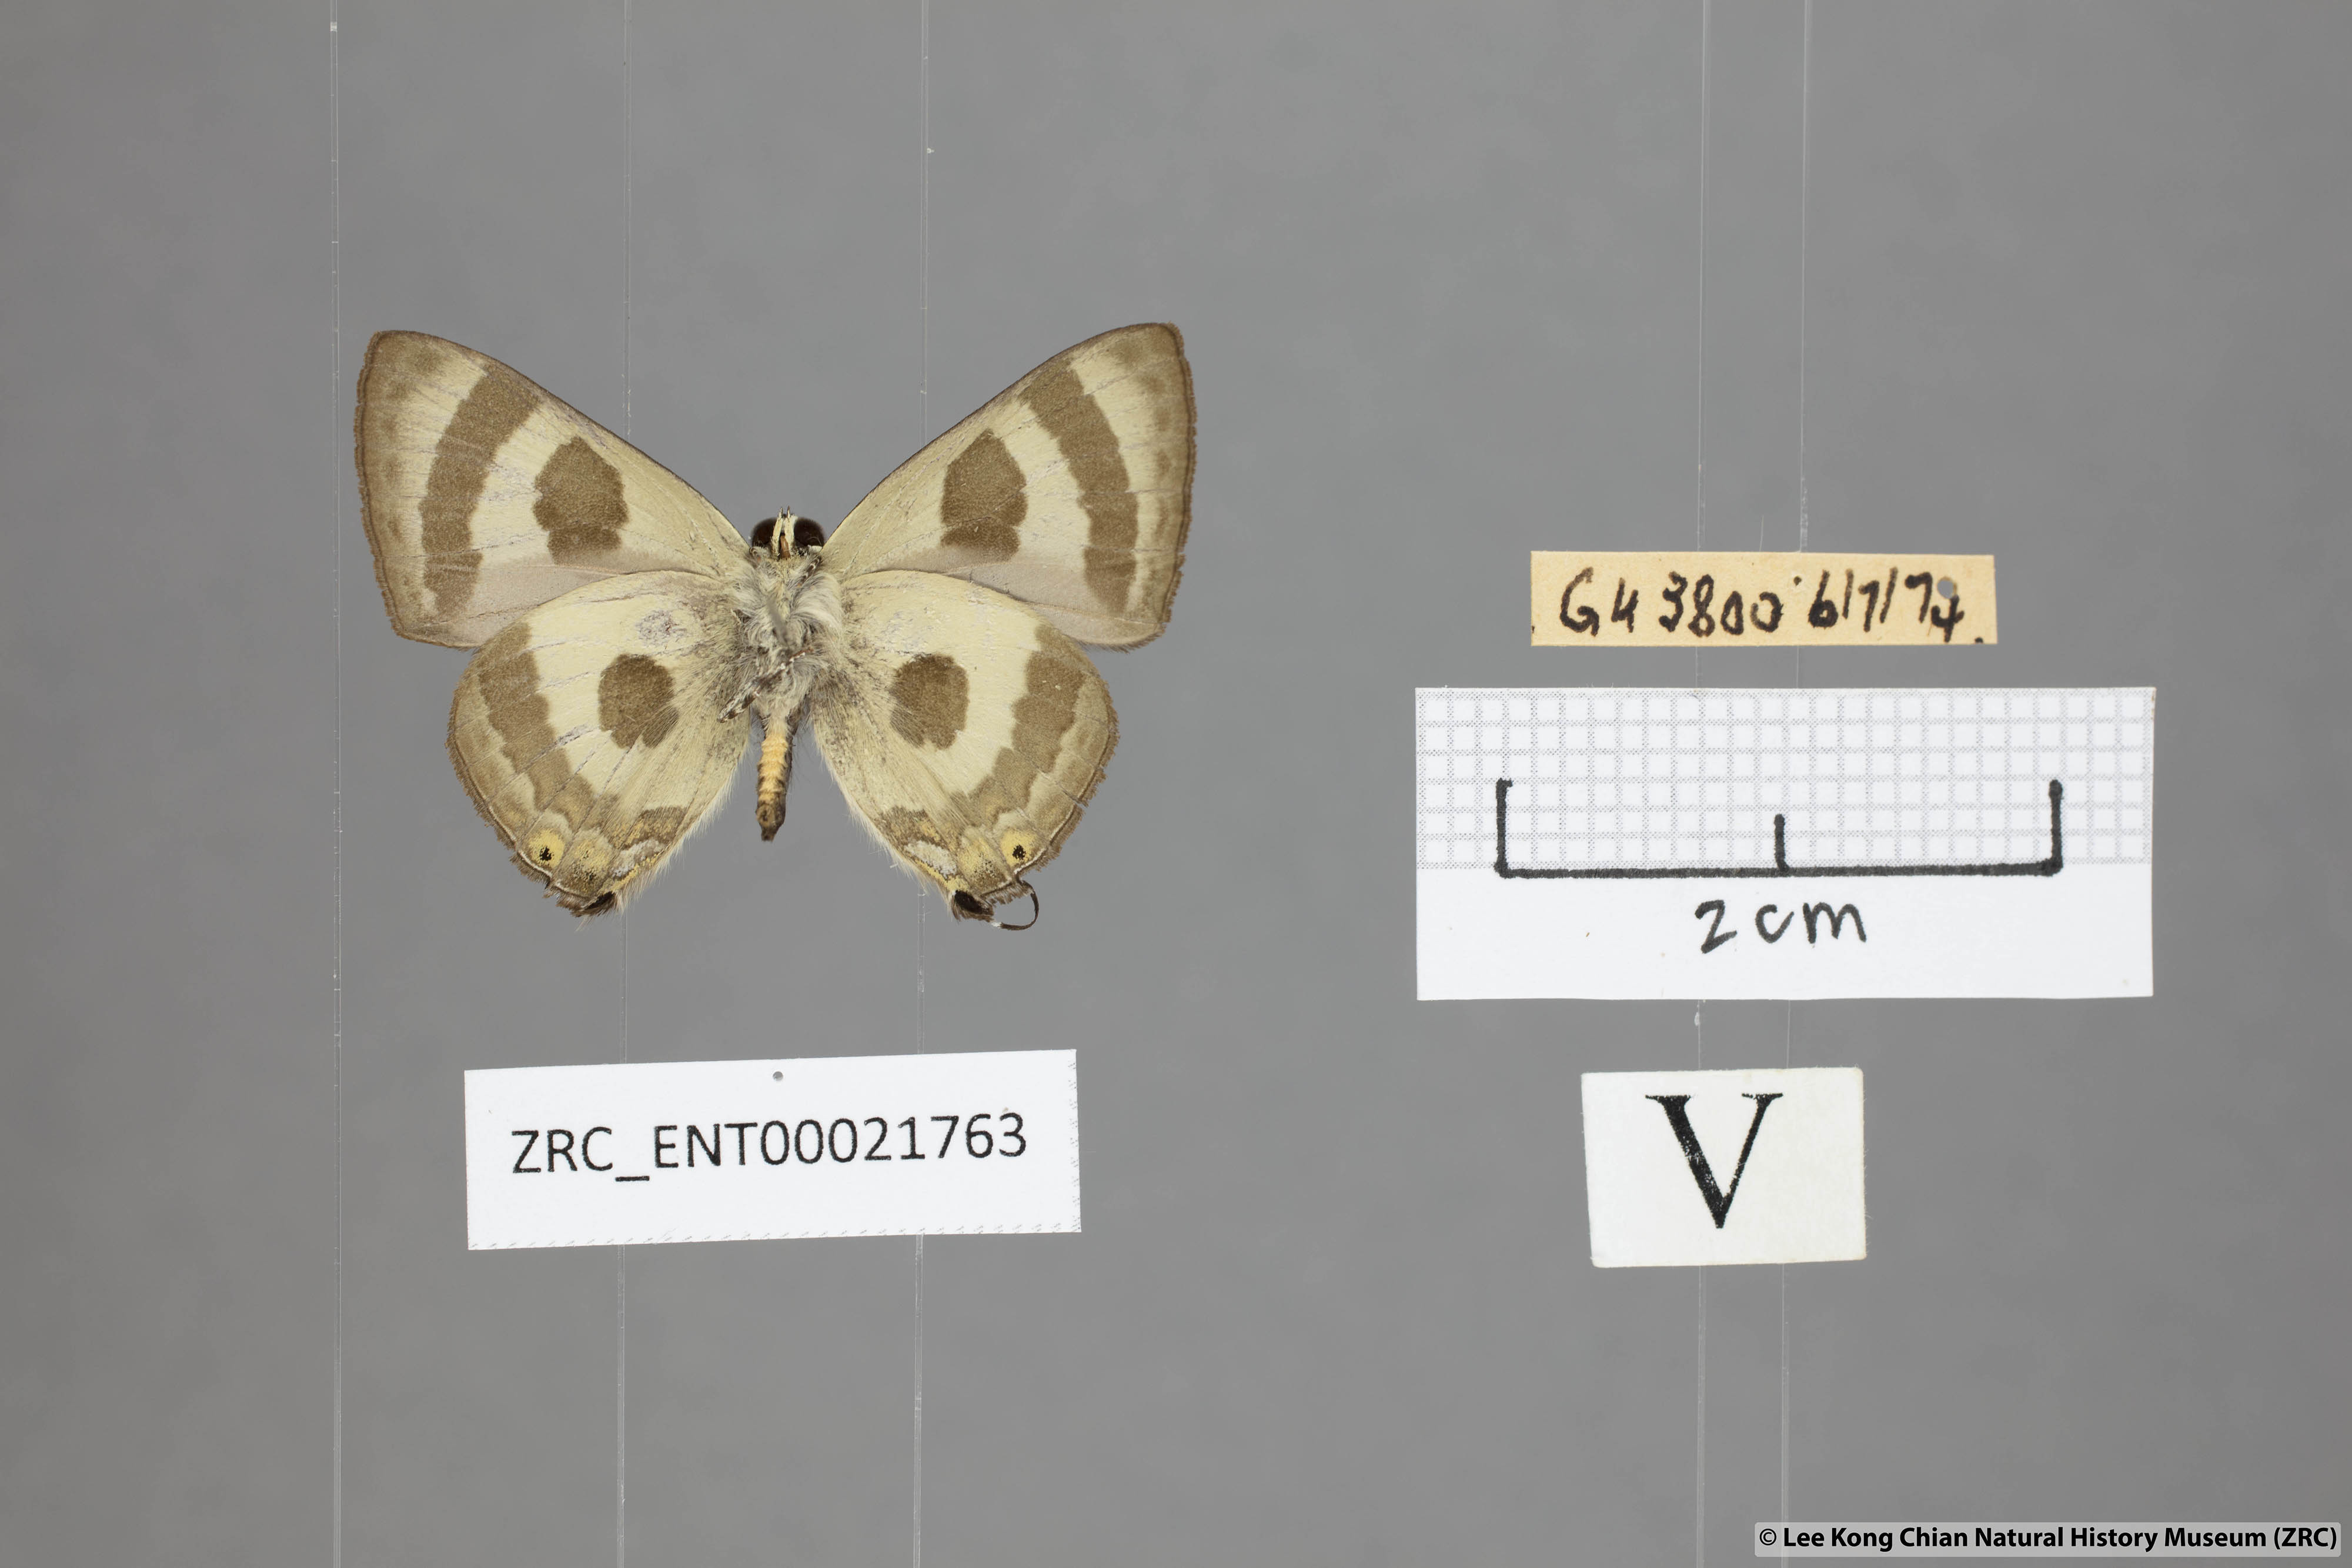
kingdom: Animalia
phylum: Arthropoda
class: Insecta
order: Lepidoptera
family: Lycaenidae
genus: Rapala
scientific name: Rapala
